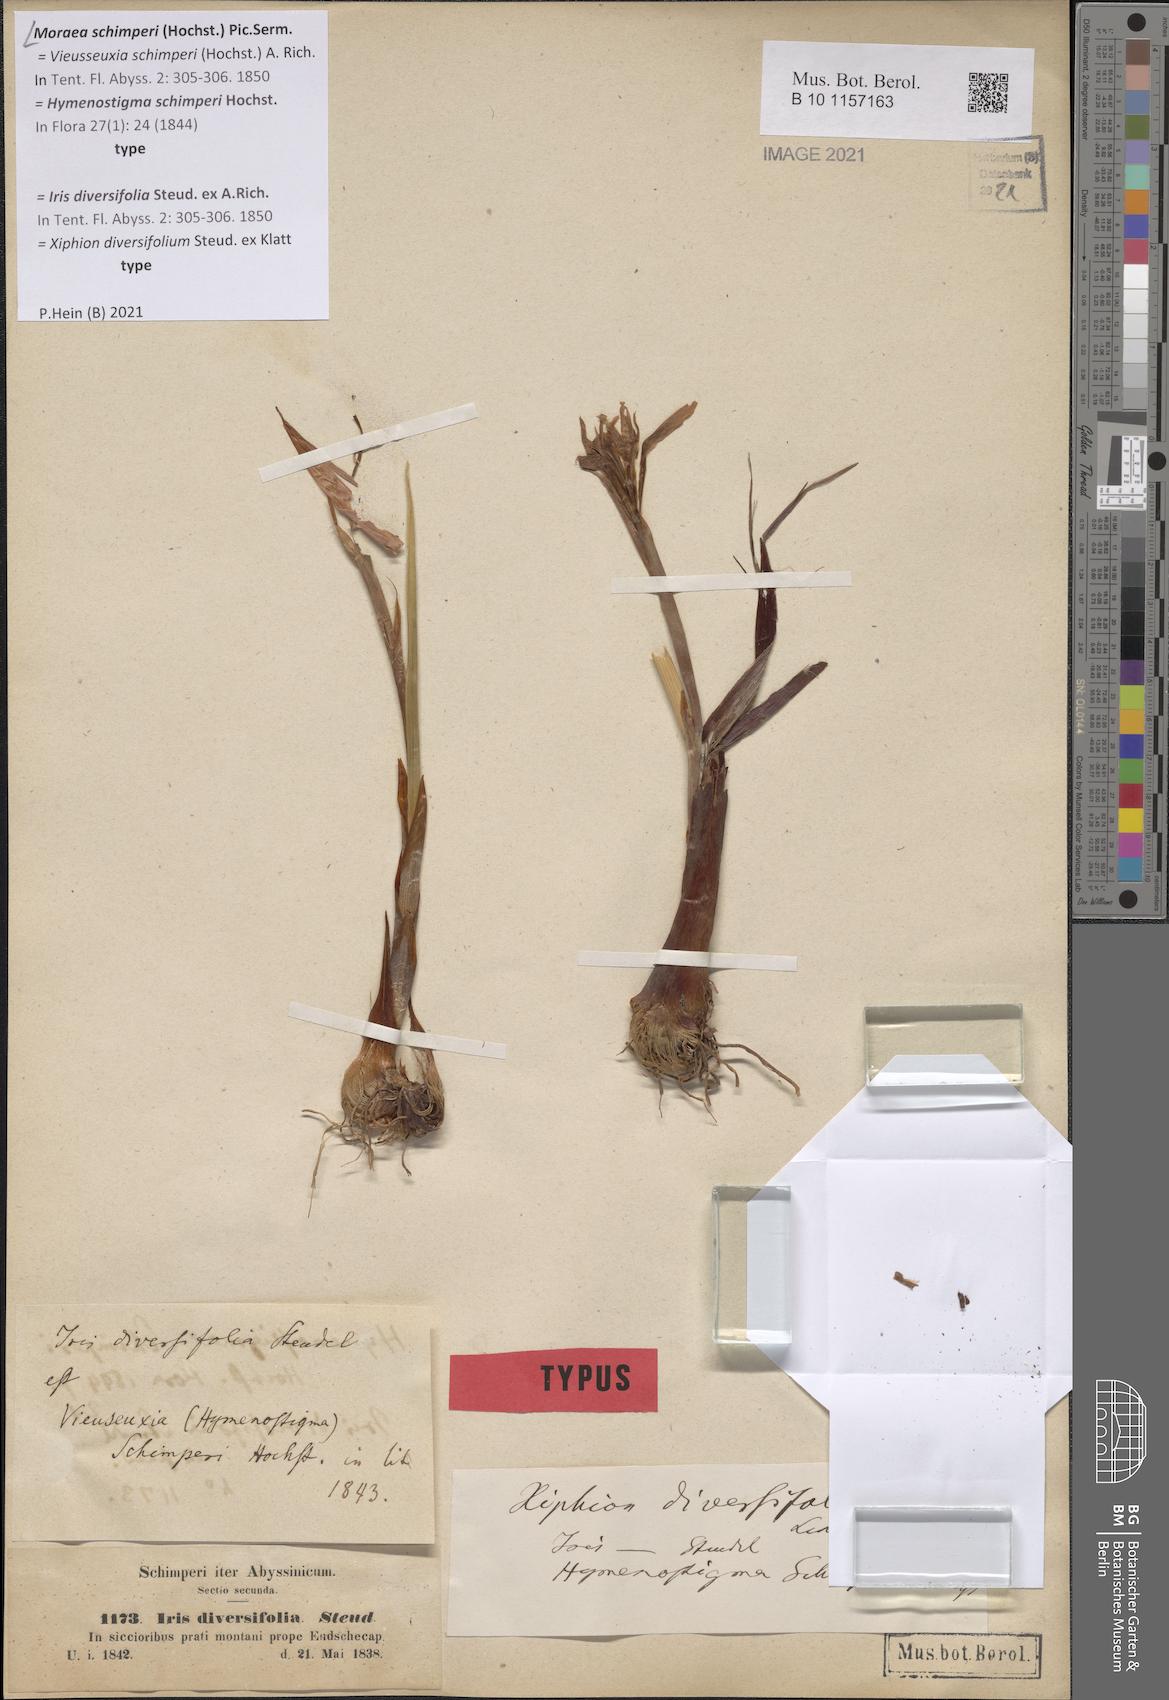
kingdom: Plantae
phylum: Tracheophyta
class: Liliopsida
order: Asparagales
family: Iridaceae
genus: Moraea
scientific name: Moraea schimperi
